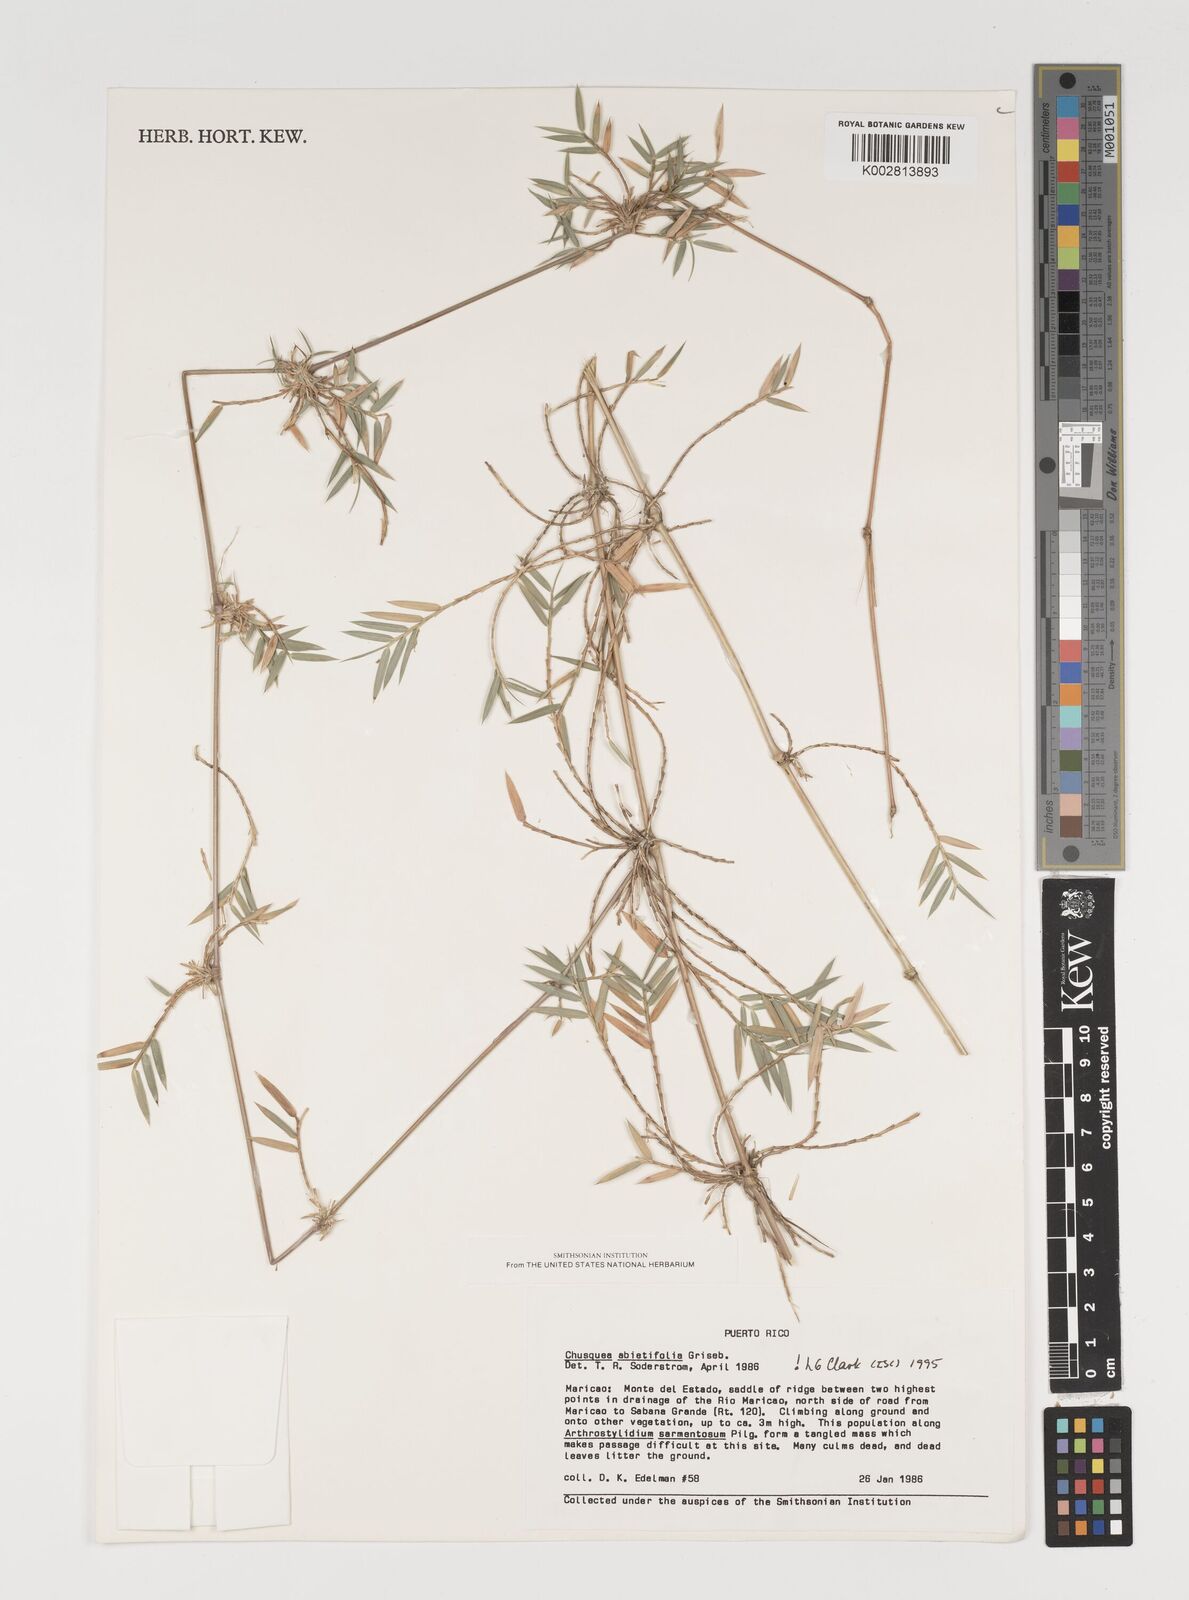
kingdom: Plantae
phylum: Tracheophyta
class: Liliopsida
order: Poales
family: Poaceae
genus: Chusquea
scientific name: Chusquea abietifolia
